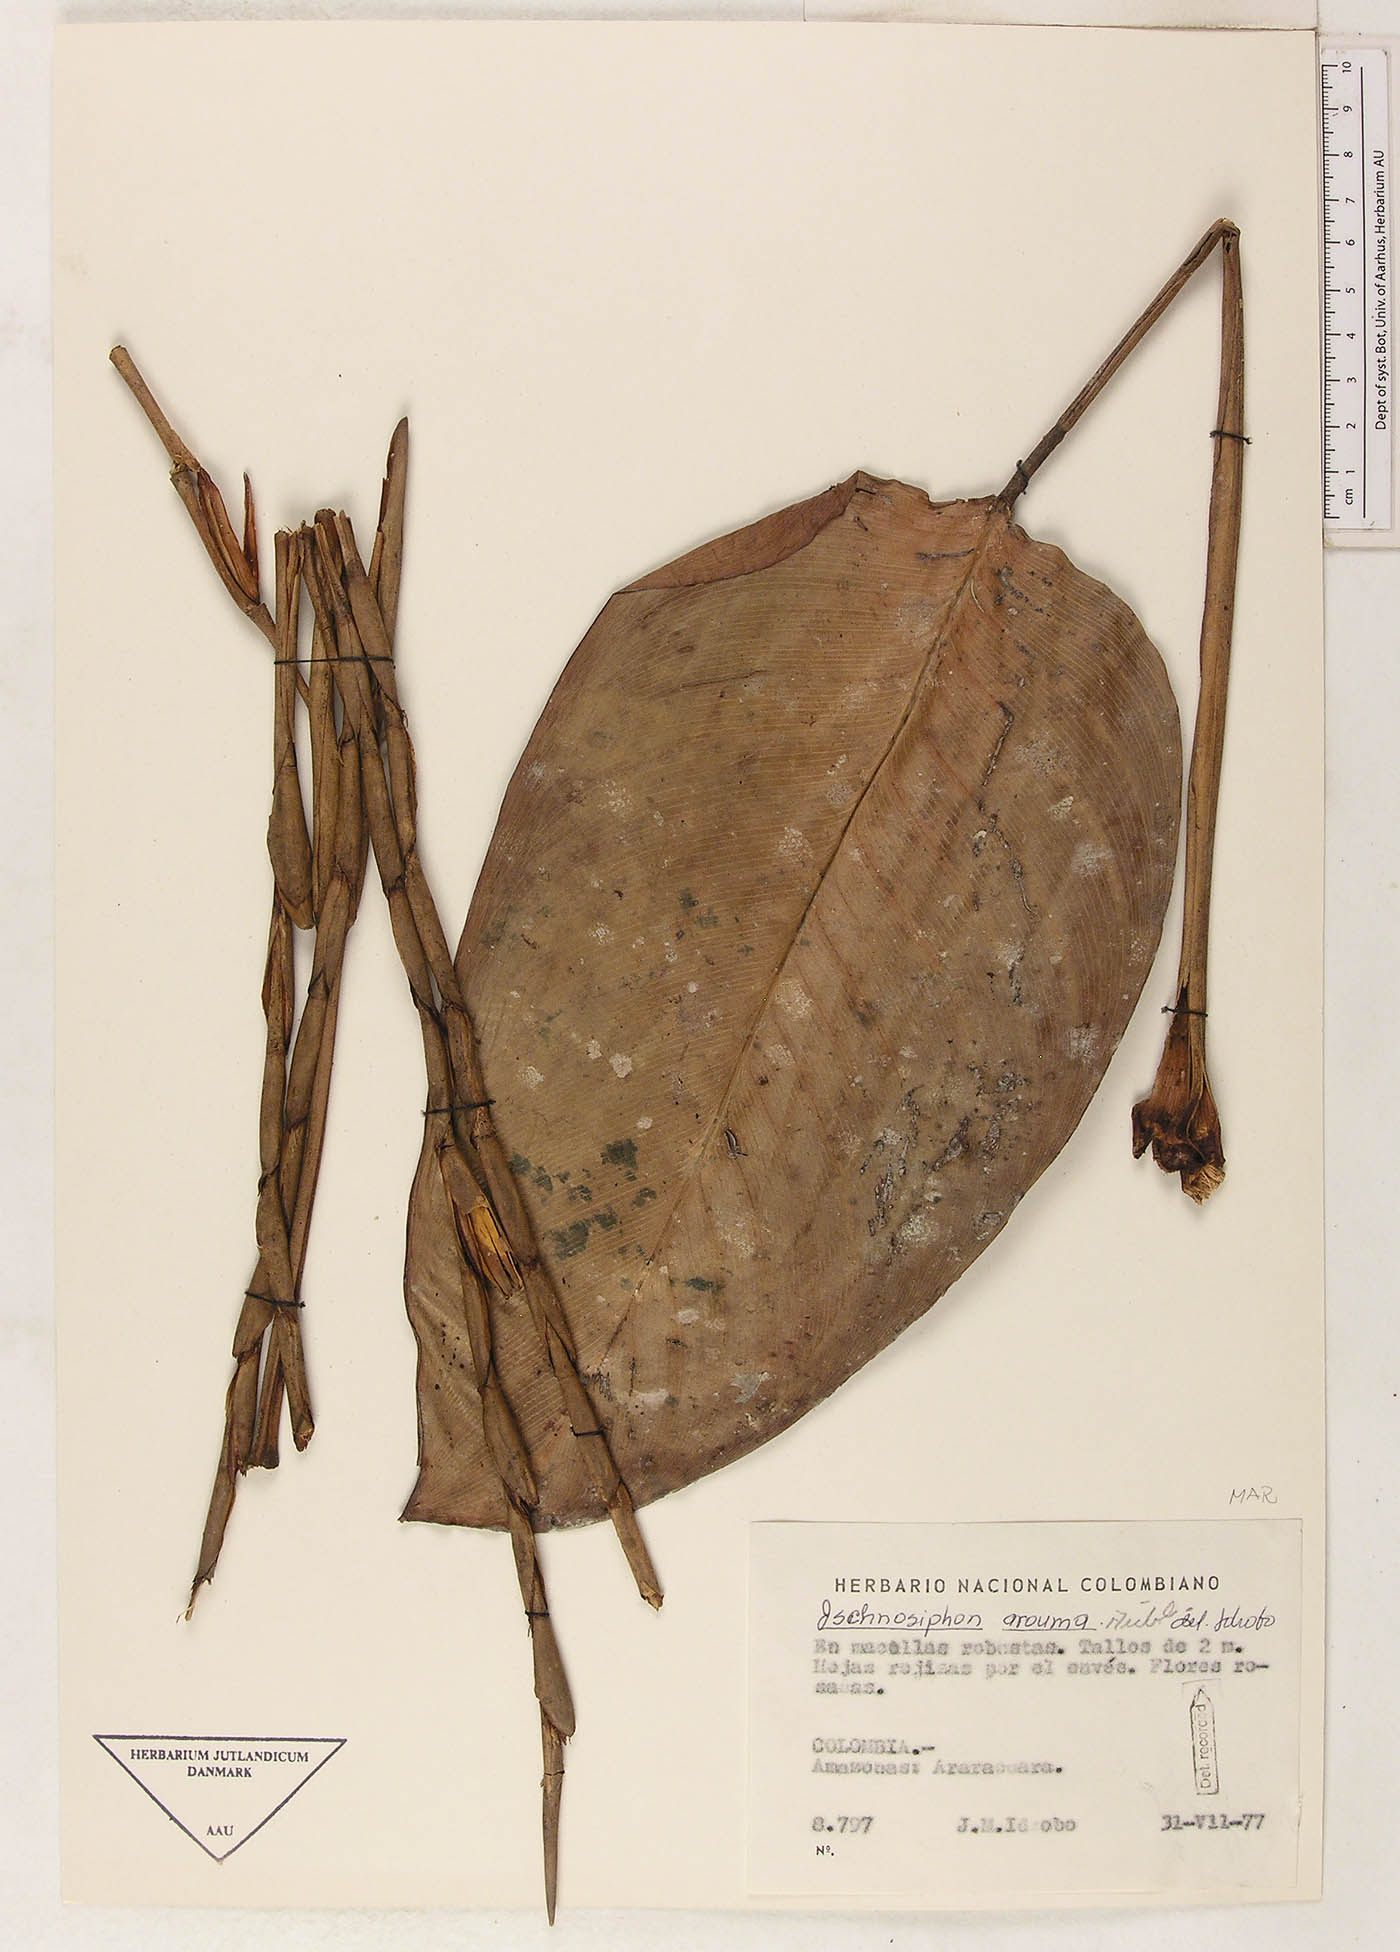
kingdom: Plantae
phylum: Tracheophyta
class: Liliopsida
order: Zingiberales
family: Marantaceae
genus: Ischnosiphon
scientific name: Ischnosiphon arouma
